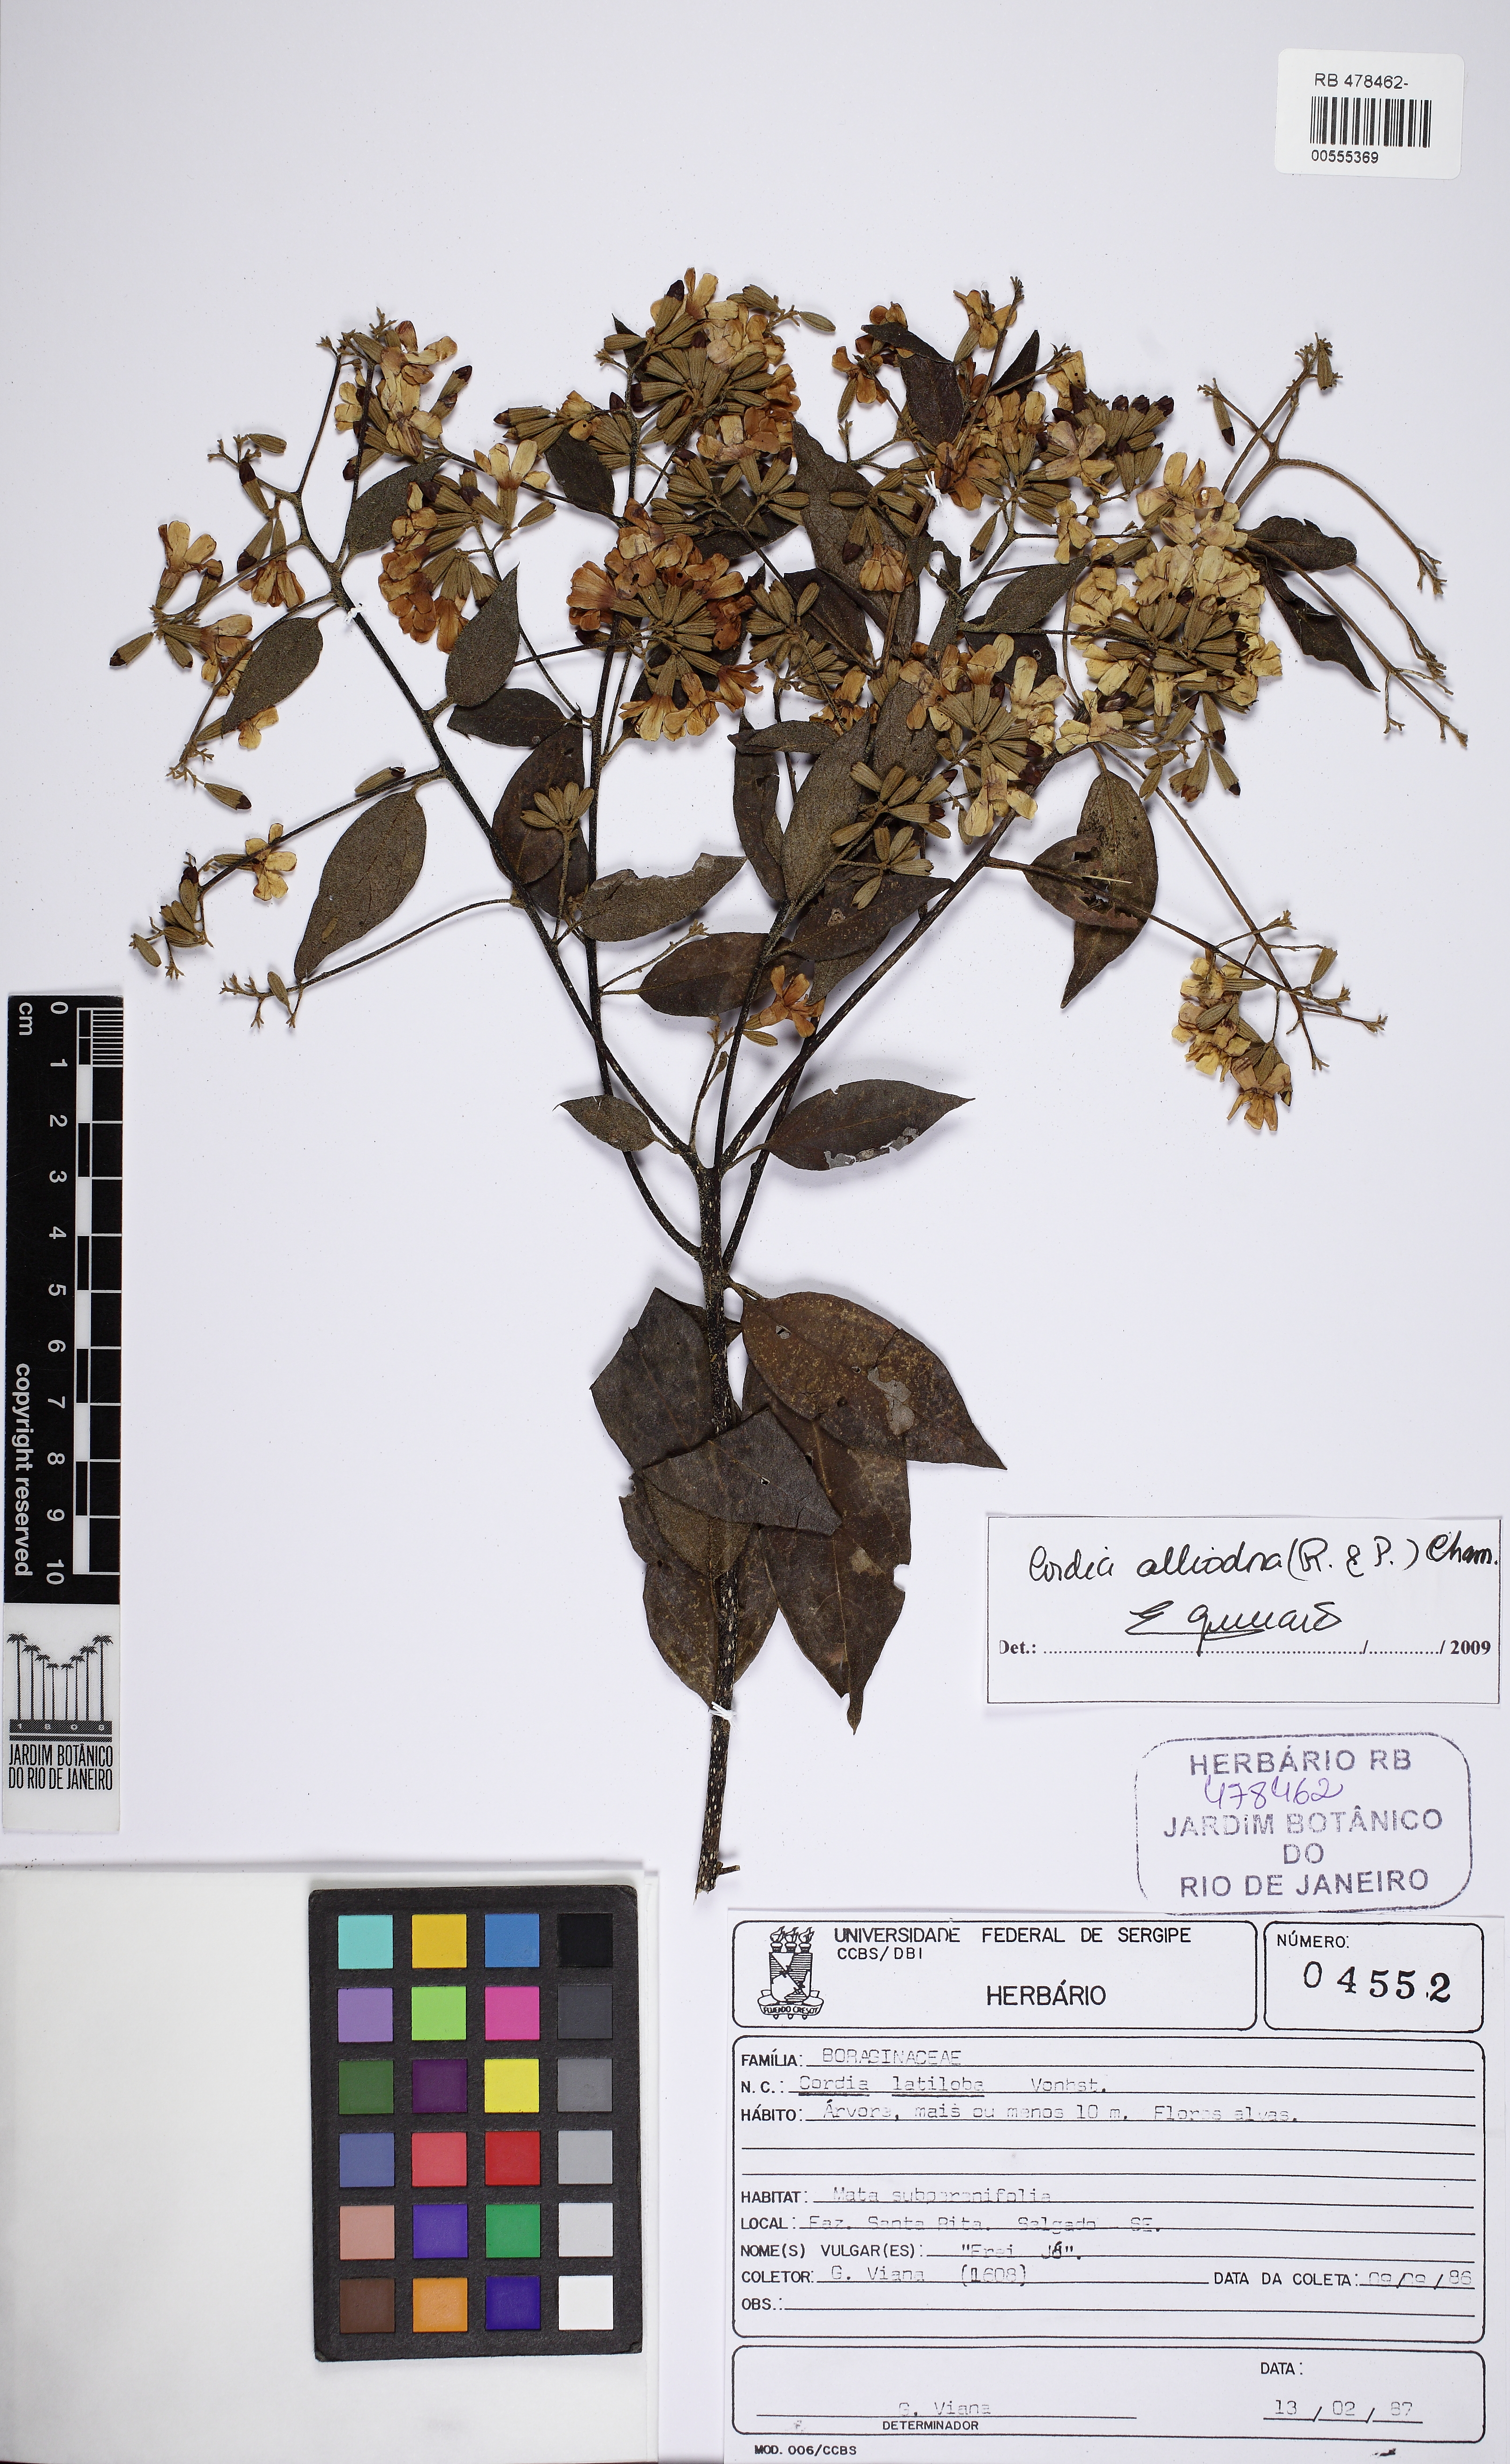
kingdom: Plantae
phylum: Tracheophyta
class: Magnoliopsida
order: Boraginales
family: Cordiaceae
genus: Cordia
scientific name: Cordia alliodora
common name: Spanish elm
